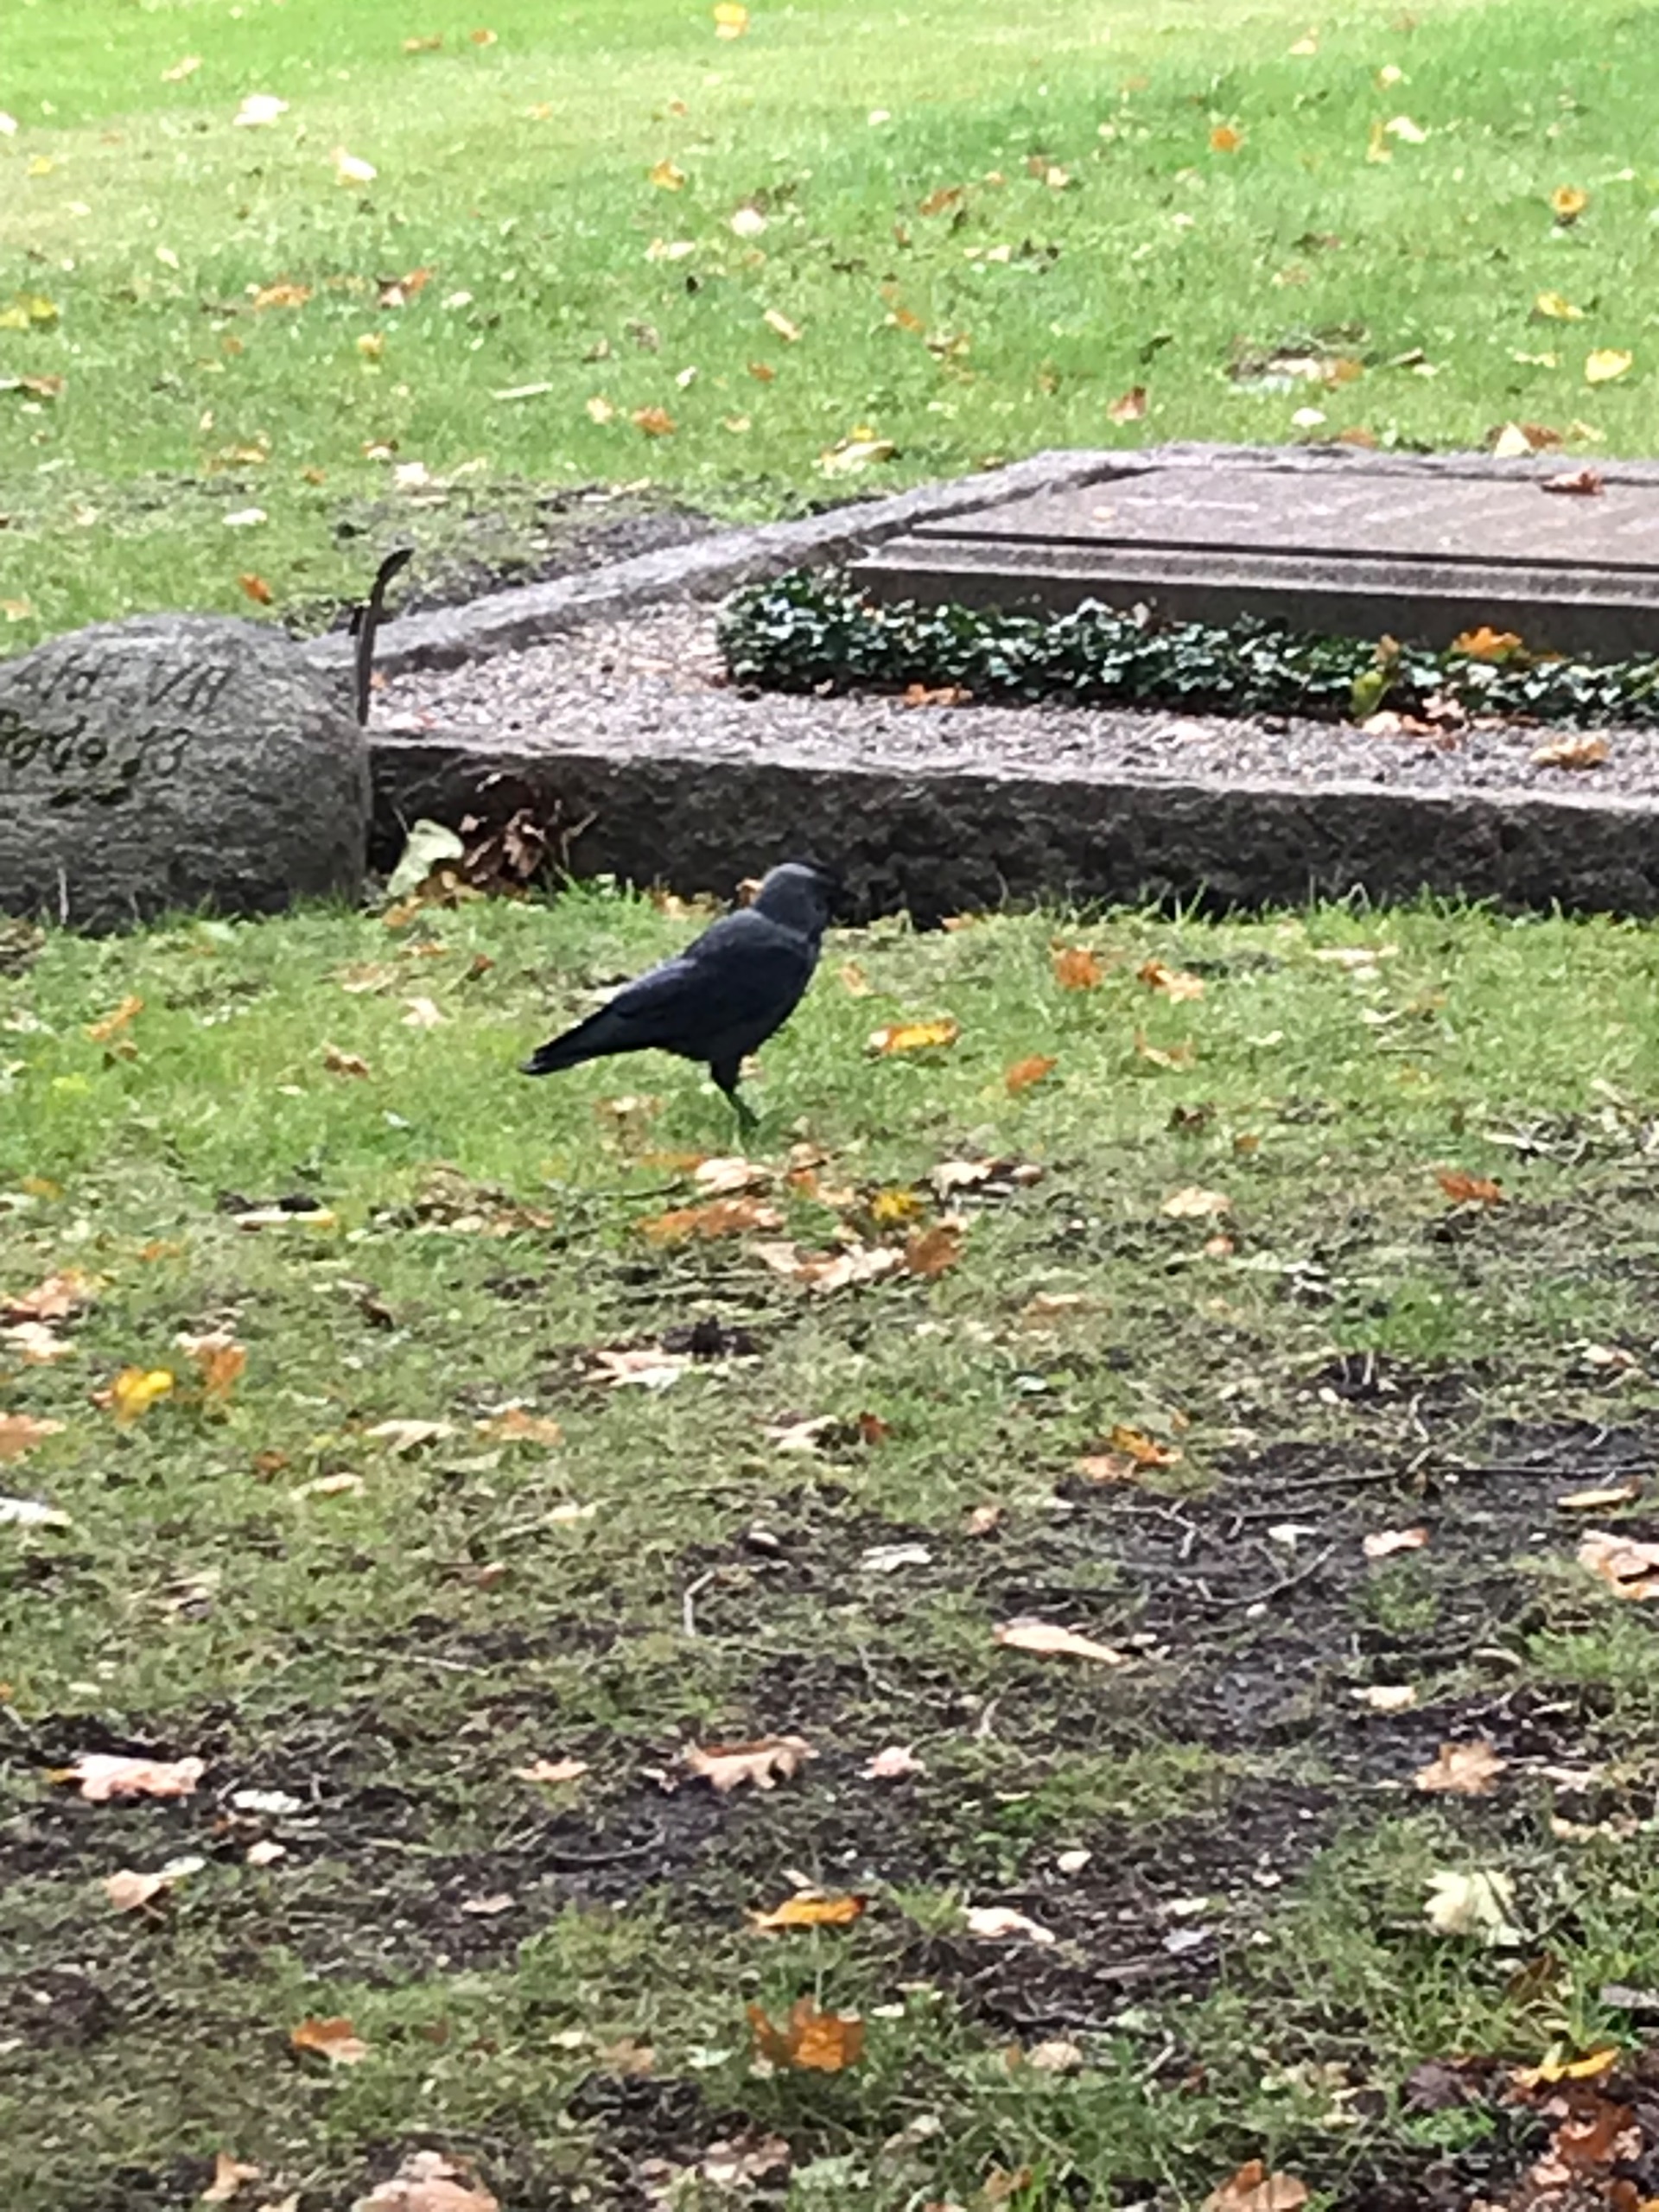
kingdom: Animalia
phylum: Chordata
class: Aves
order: Passeriformes
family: Corvidae
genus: Coloeus
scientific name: Coloeus monedula
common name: Allike
